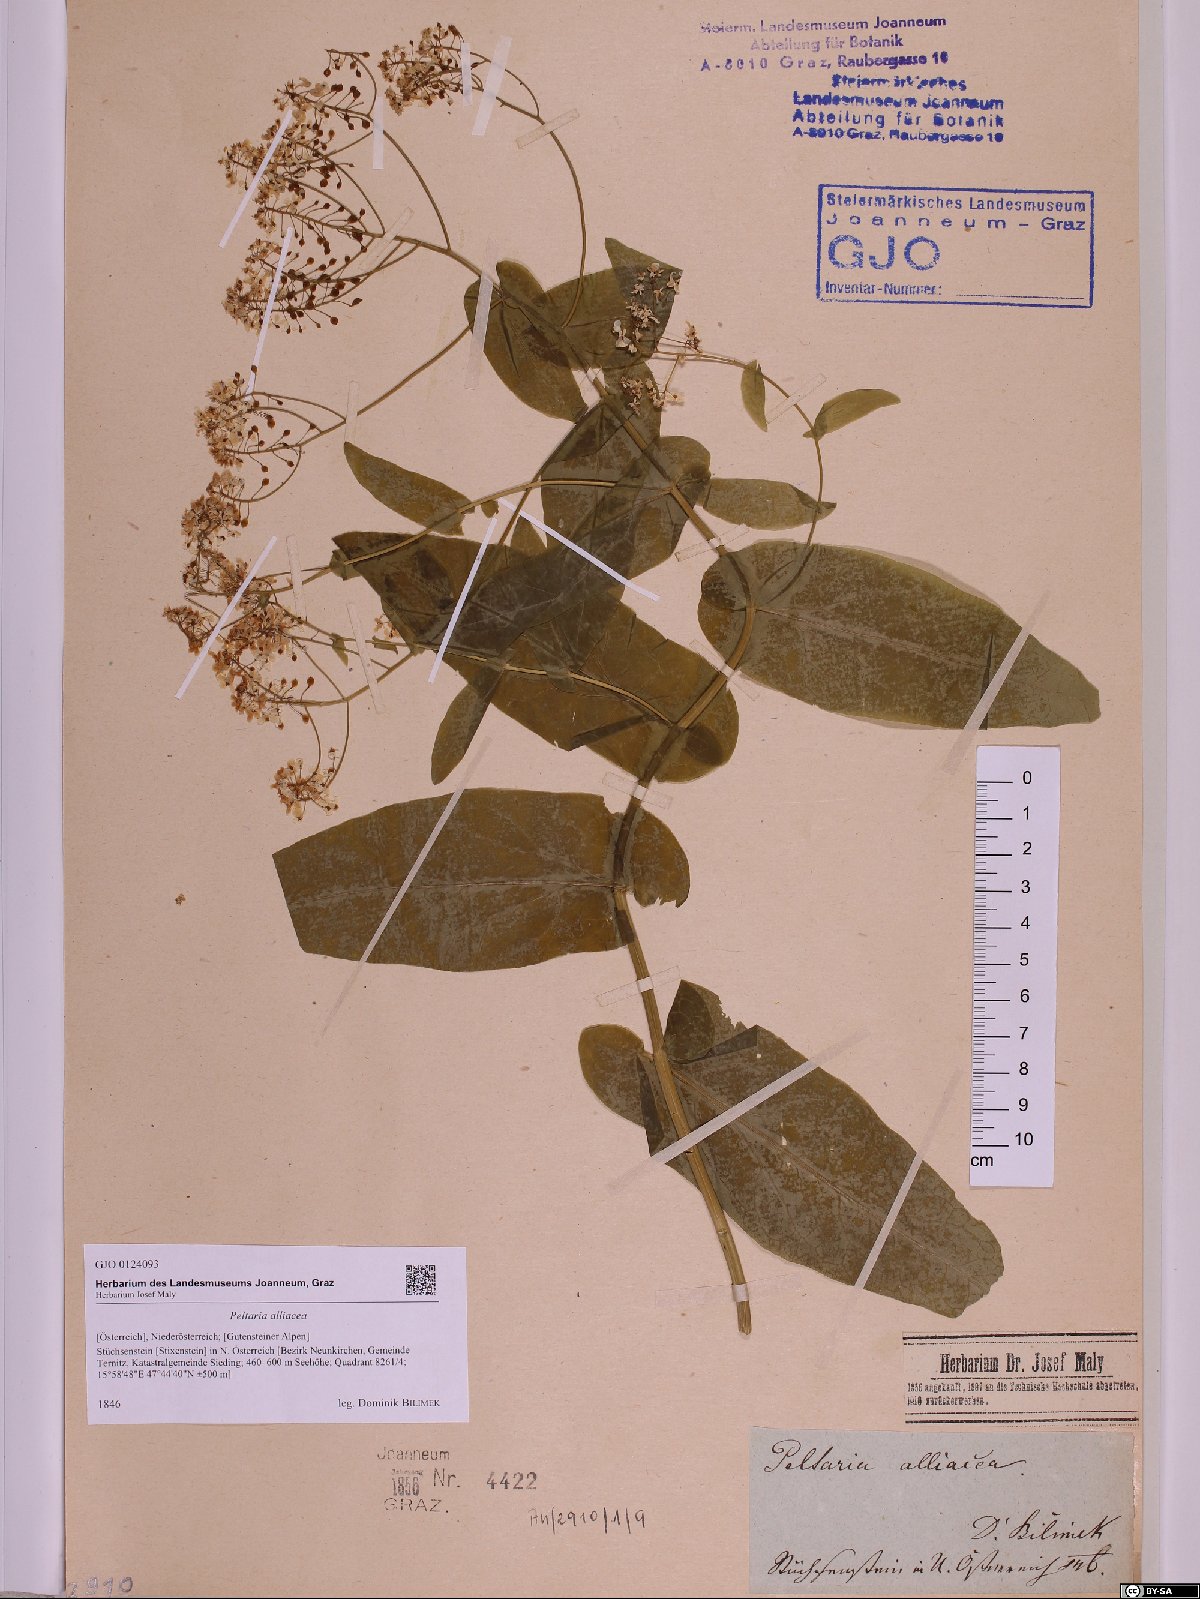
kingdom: Plantae
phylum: Tracheophyta
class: Magnoliopsida
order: Brassicales
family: Brassicaceae
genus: Peltaria
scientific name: Peltaria alliacea
